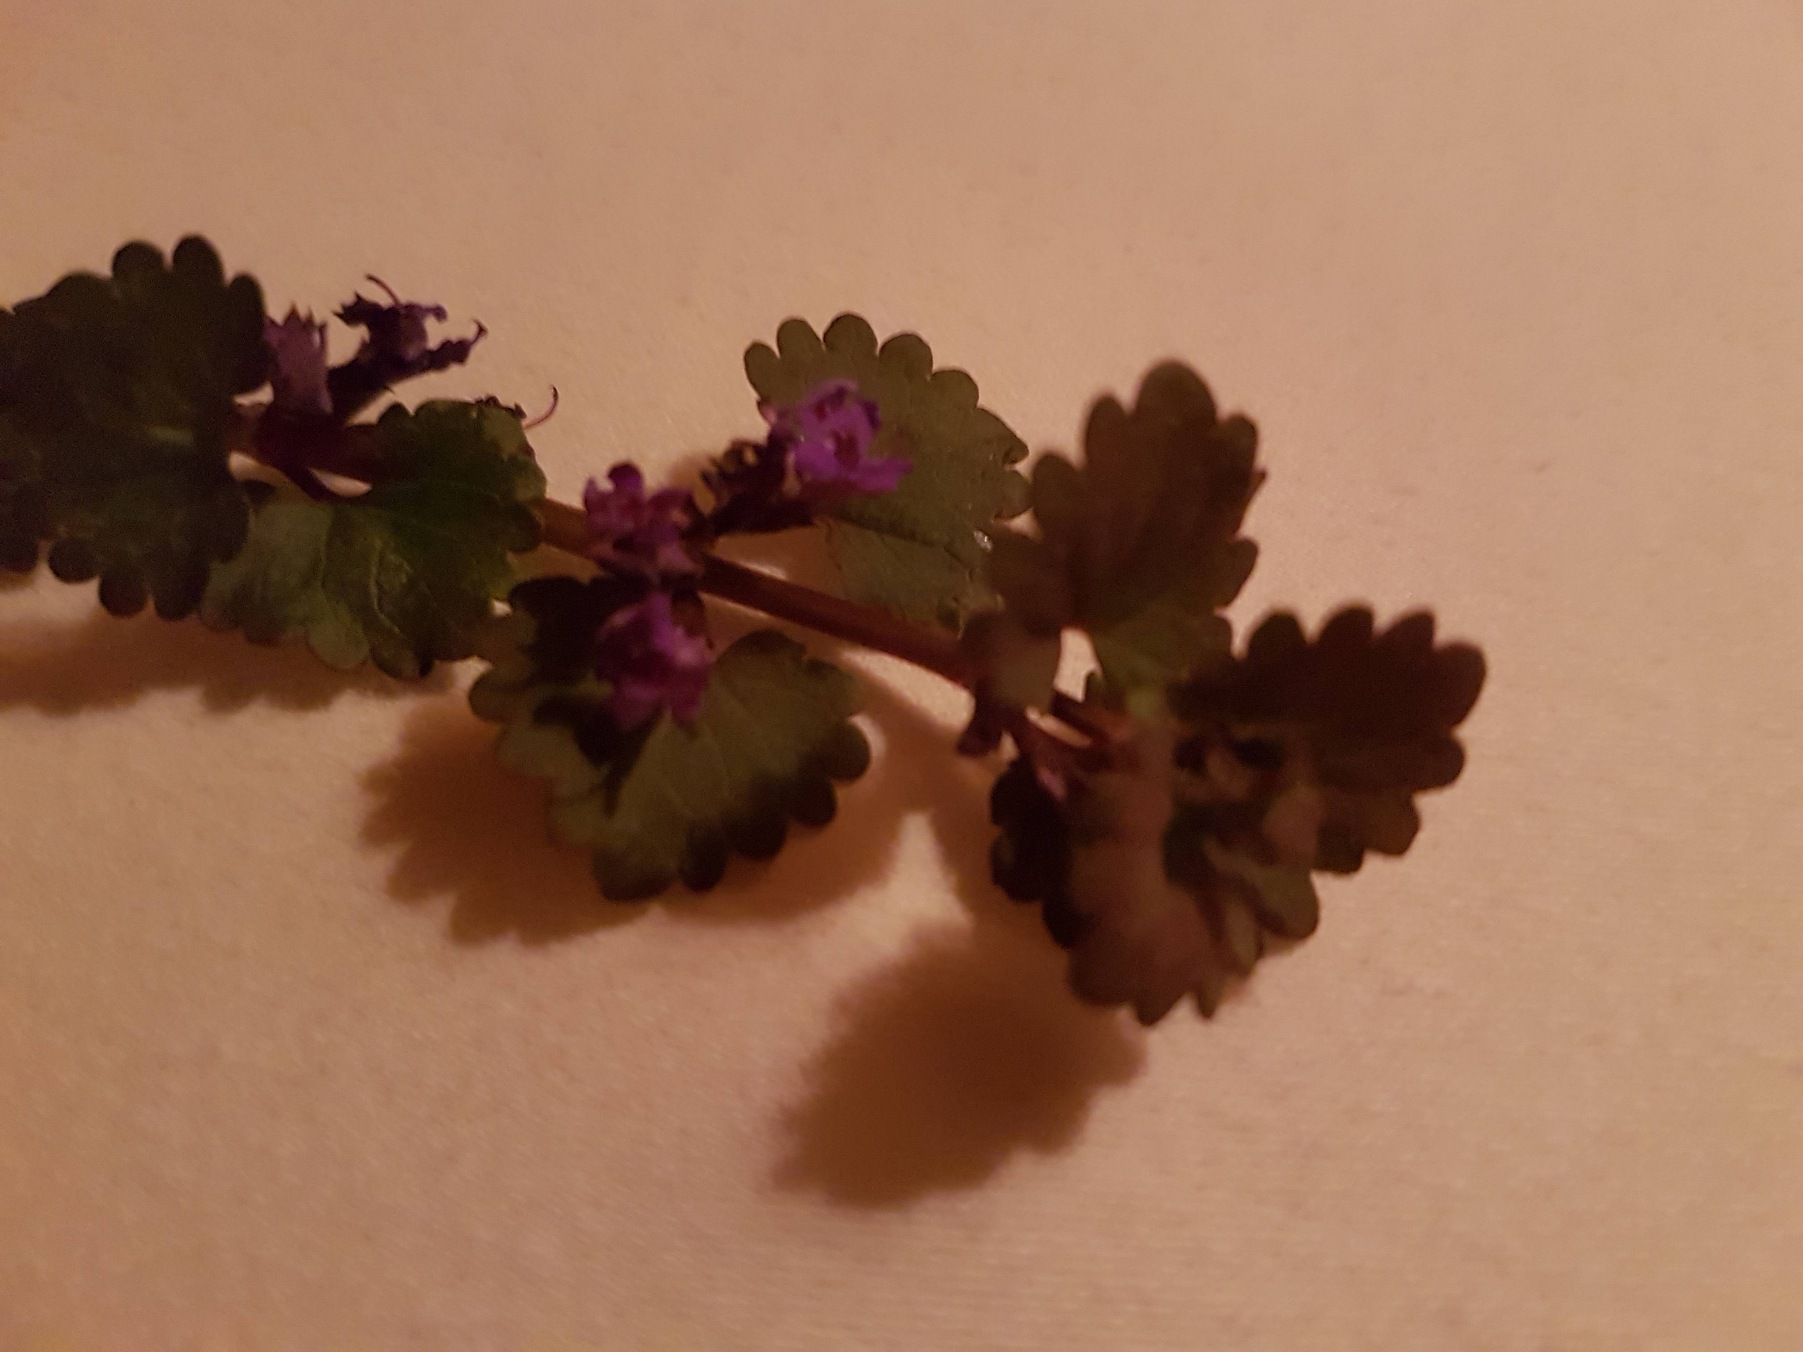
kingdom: Plantae
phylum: Tracheophyta
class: Magnoliopsida
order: Lamiales
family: Lamiaceae
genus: Glechoma
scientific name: Glechoma hederacea
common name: Korsknap
